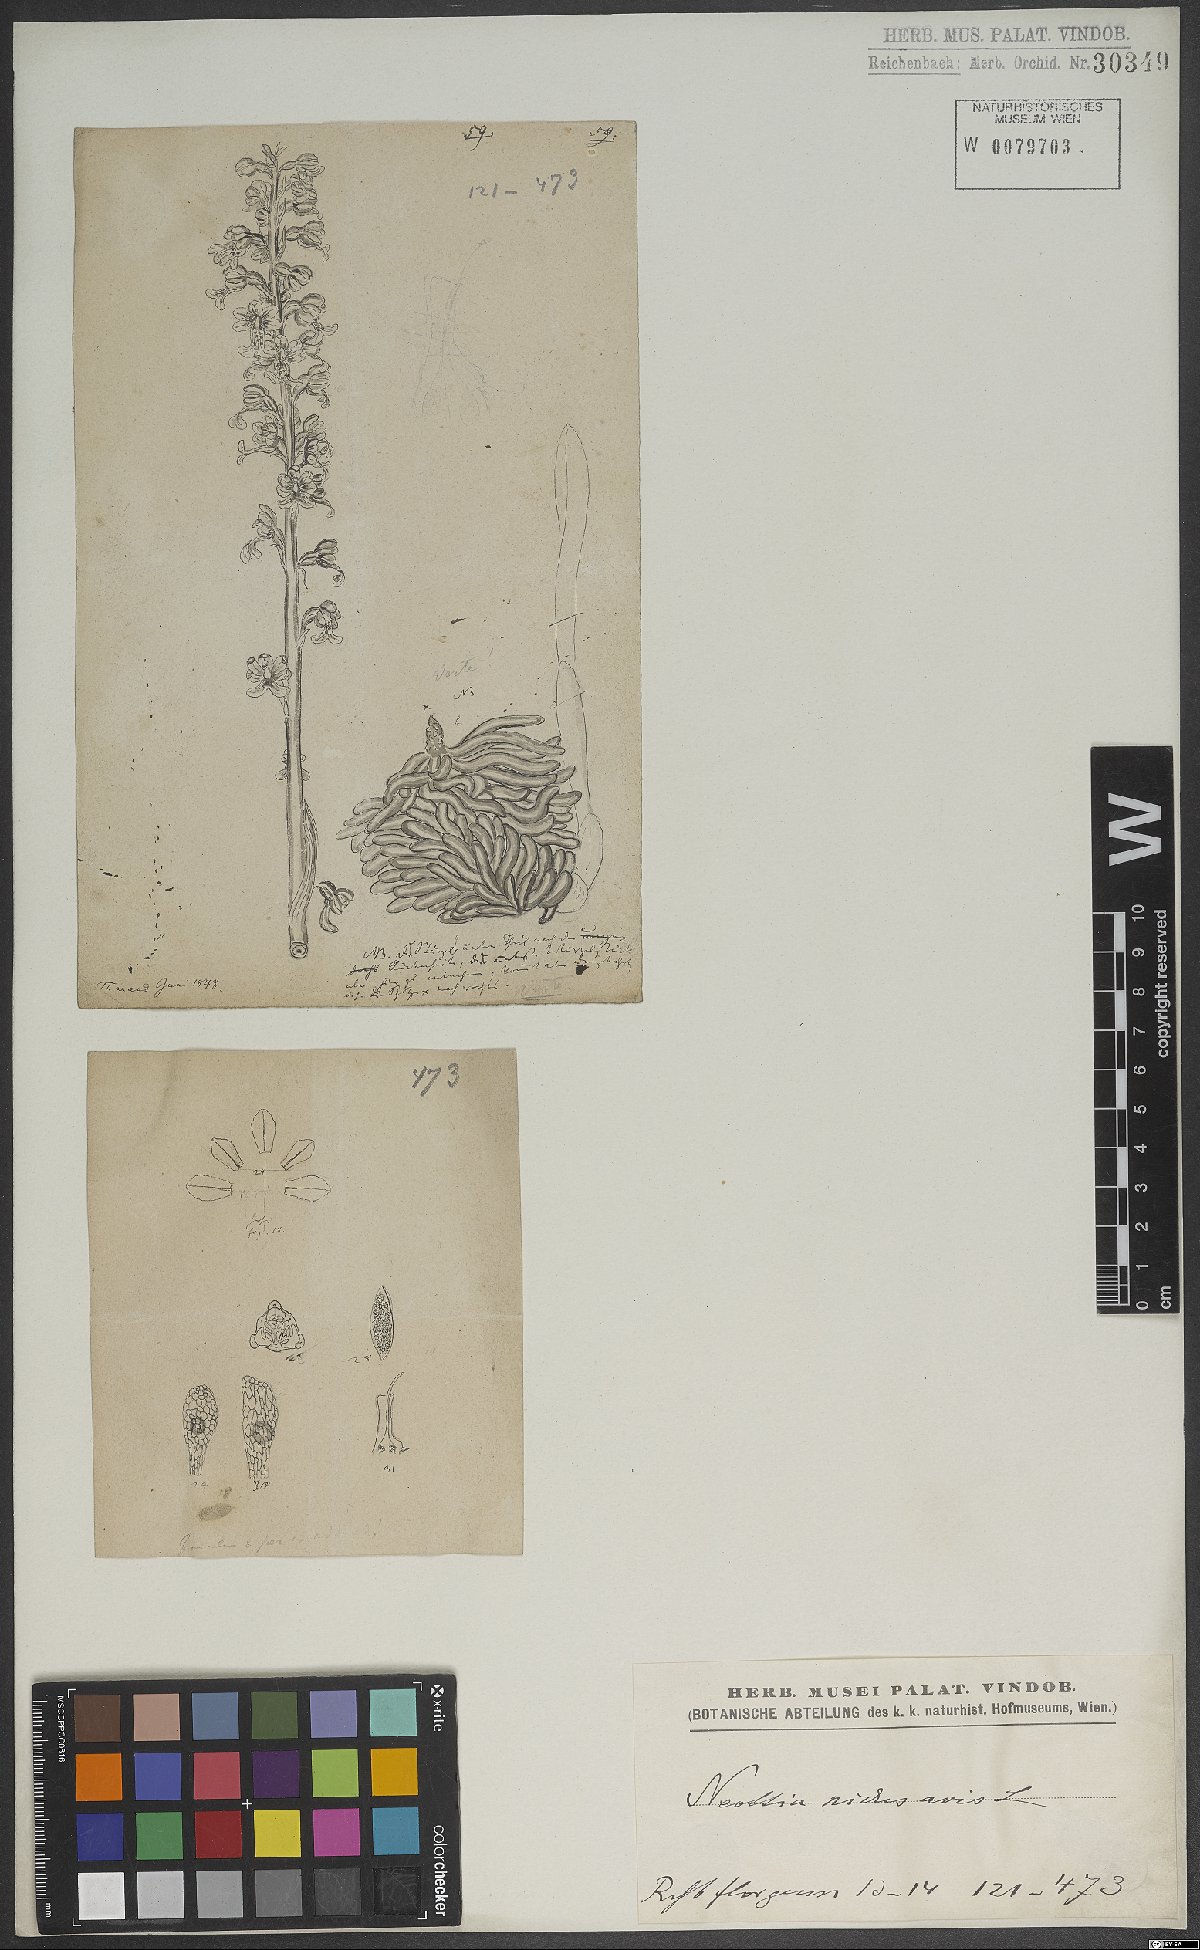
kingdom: Plantae
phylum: Tracheophyta
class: Liliopsida
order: Asparagales
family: Orchidaceae
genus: Neottia
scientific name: Neottia nidus-avis
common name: Bird's-nest orchid
